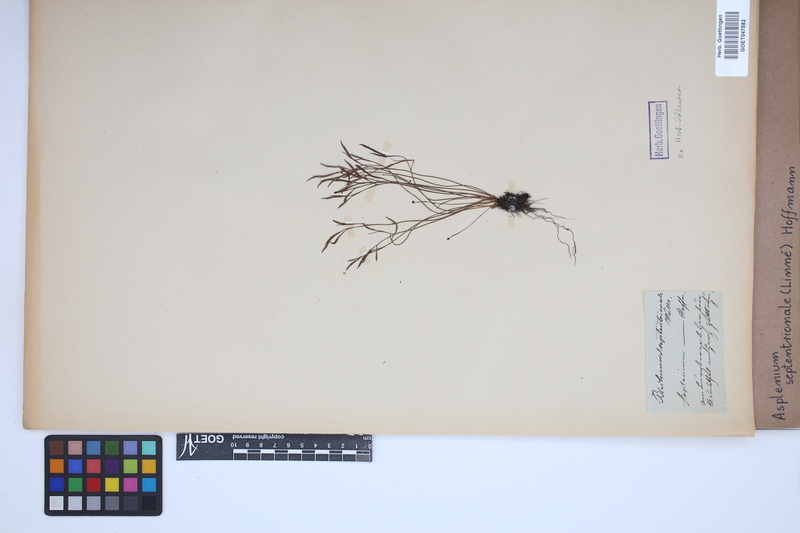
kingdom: Plantae
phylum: Tracheophyta
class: Polypodiopsida
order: Polypodiales
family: Aspleniaceae
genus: Asplenium
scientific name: Asplenium septentrionale
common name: Forked spleenwort
